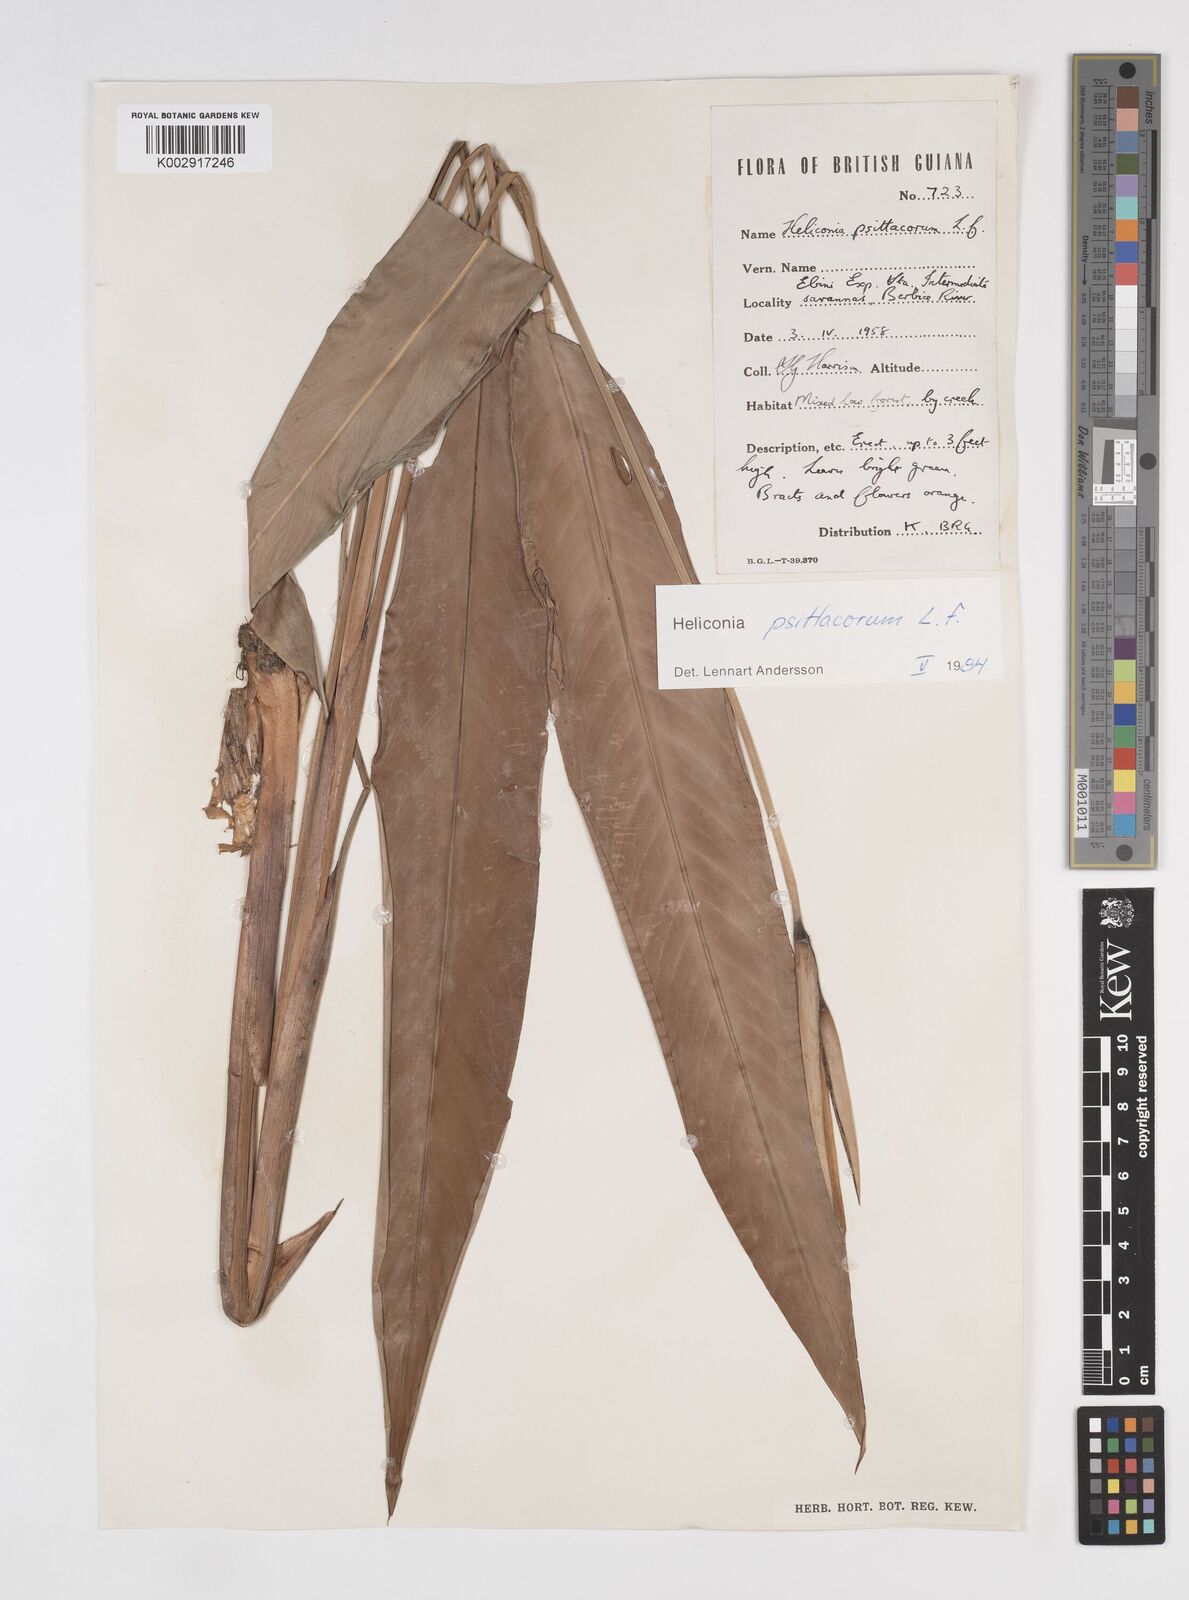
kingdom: Plantae
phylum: Tracheophyta
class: Liliopsida
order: Zingiberales
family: Heliconiaceae
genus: Heliconia
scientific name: Heliconia psittacorum
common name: Parrot's-flower
